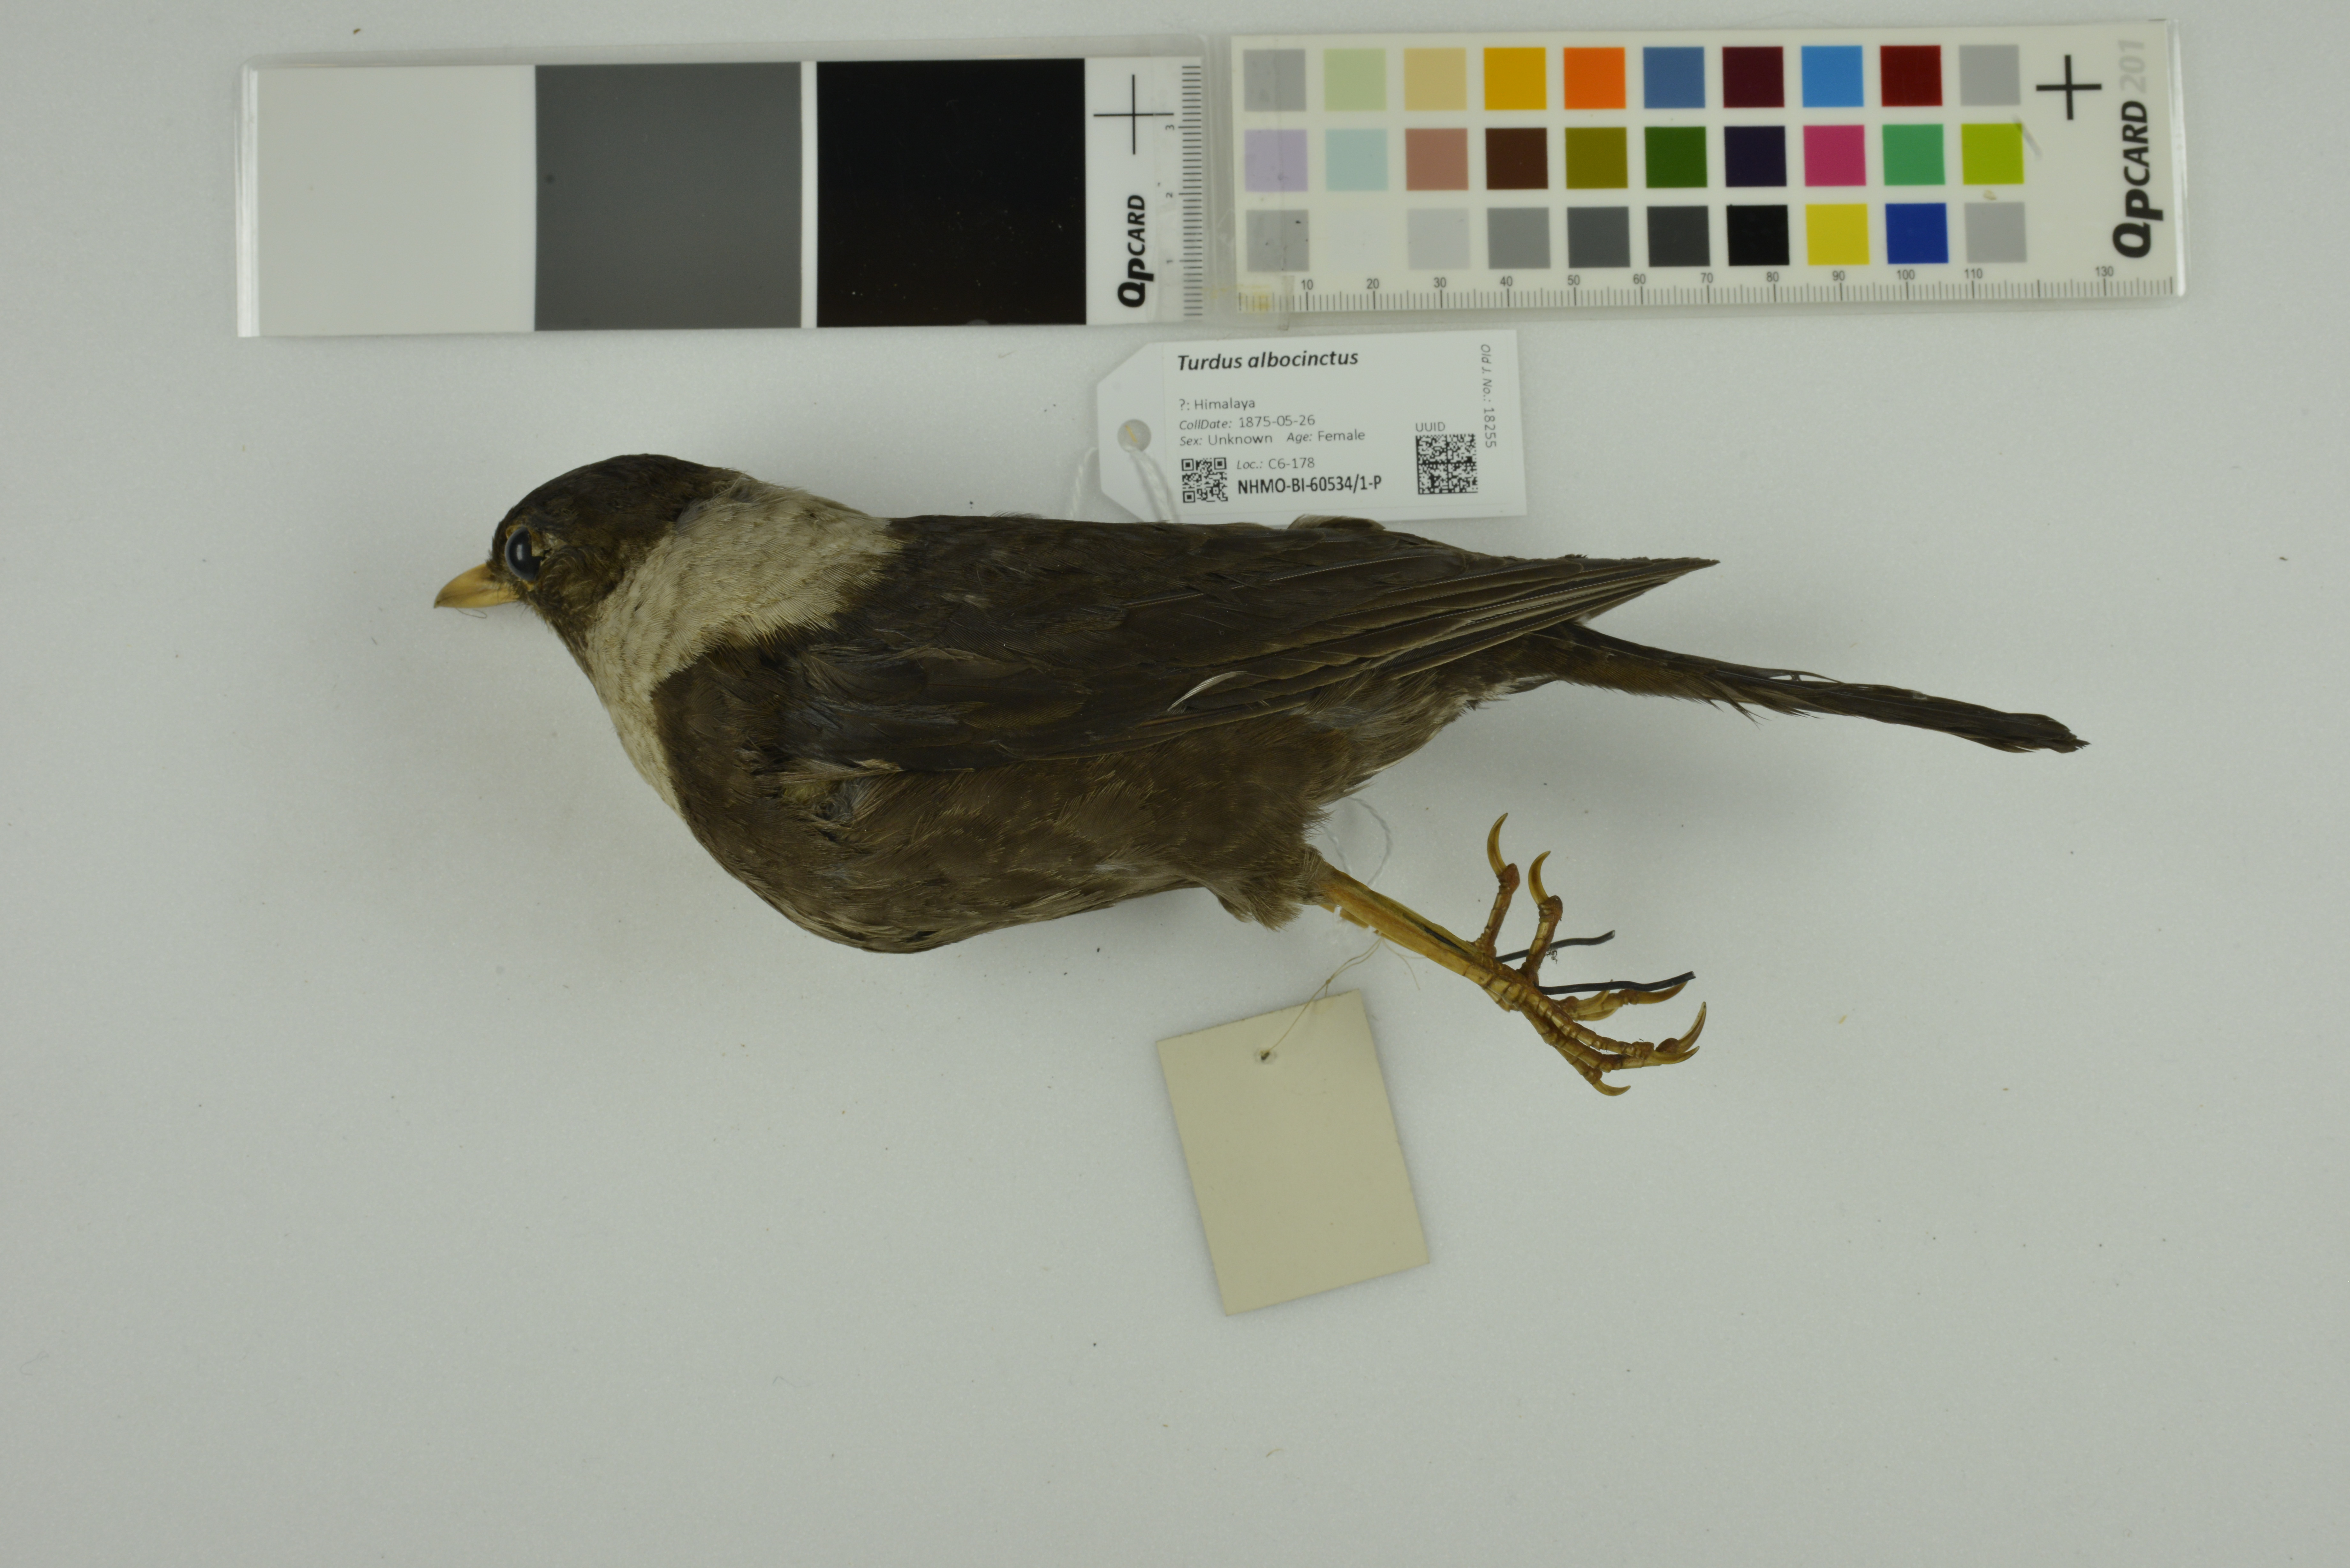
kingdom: Animalia
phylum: Chordata
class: Aves
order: Passeriformes
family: Turdidae
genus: Turdus
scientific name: Turdus albocinctus
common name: White-collared blackbird
